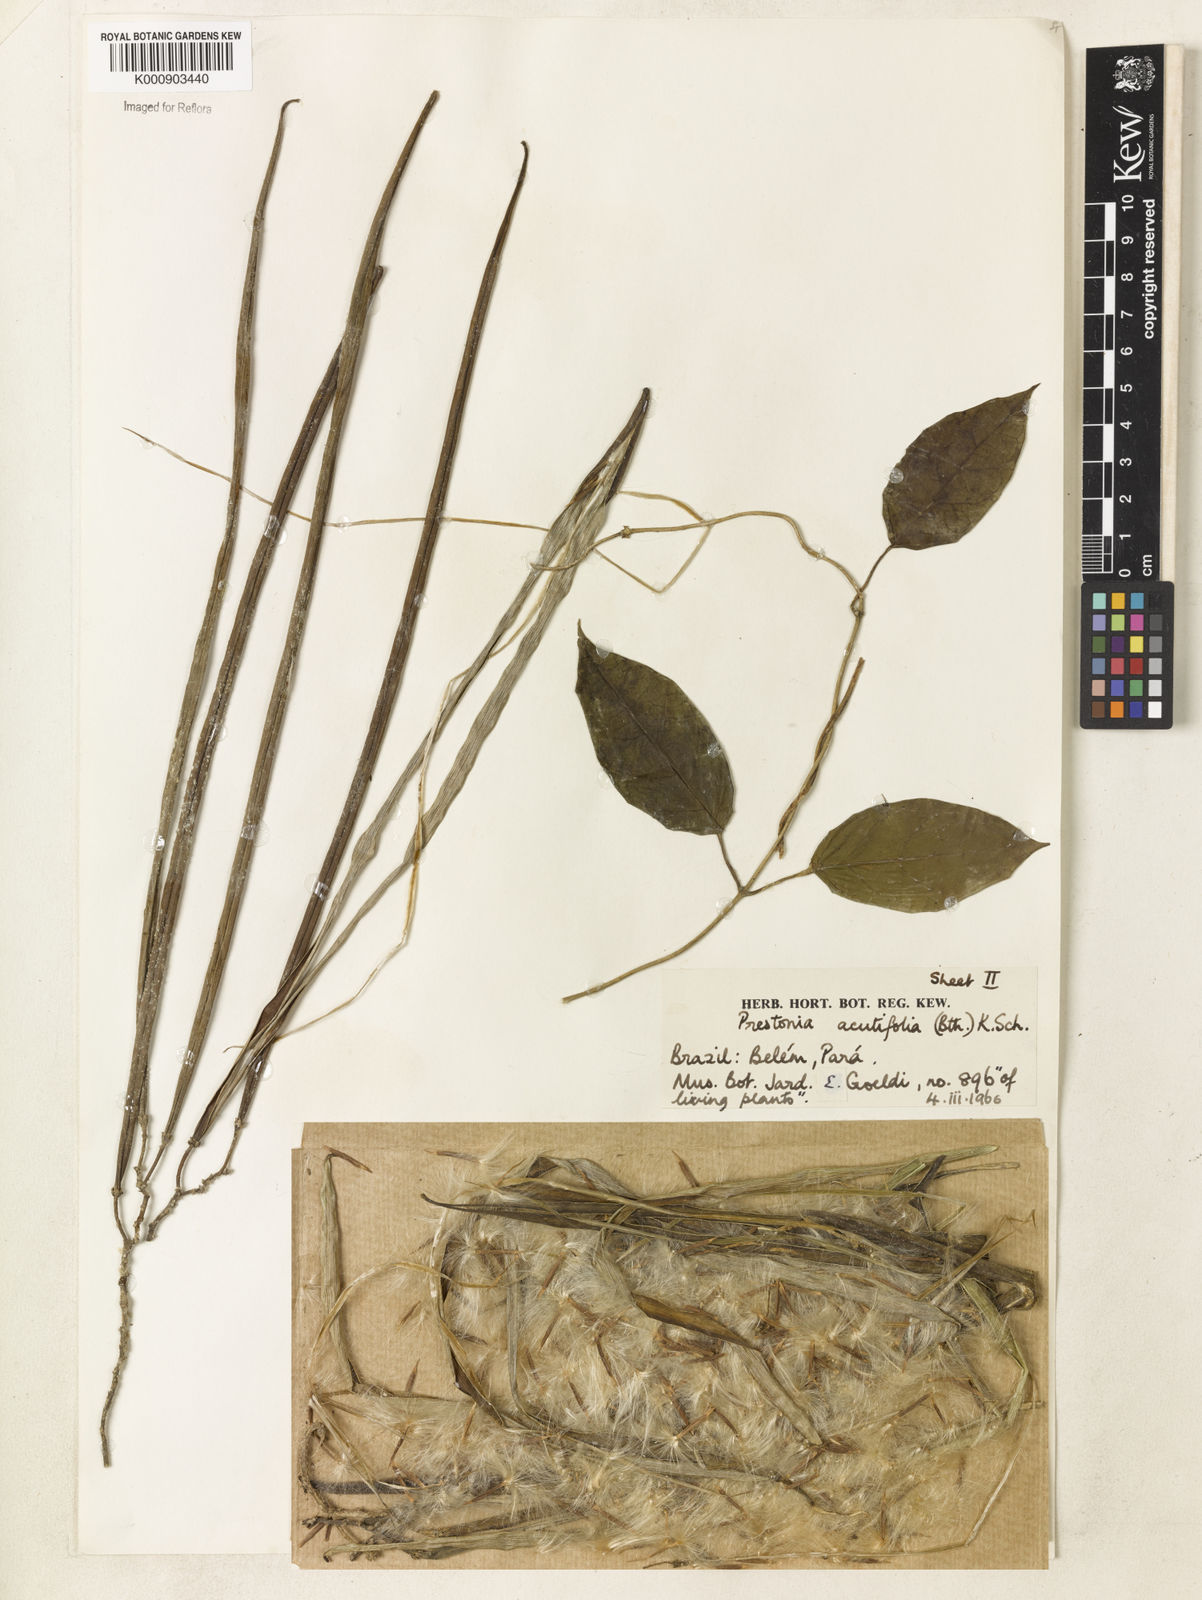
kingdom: Plantae
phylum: Tracheophyta
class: Magnoliopsida
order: Gentianales
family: Apocynaceae
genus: Prestonia
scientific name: Prestonia quinquangularis
